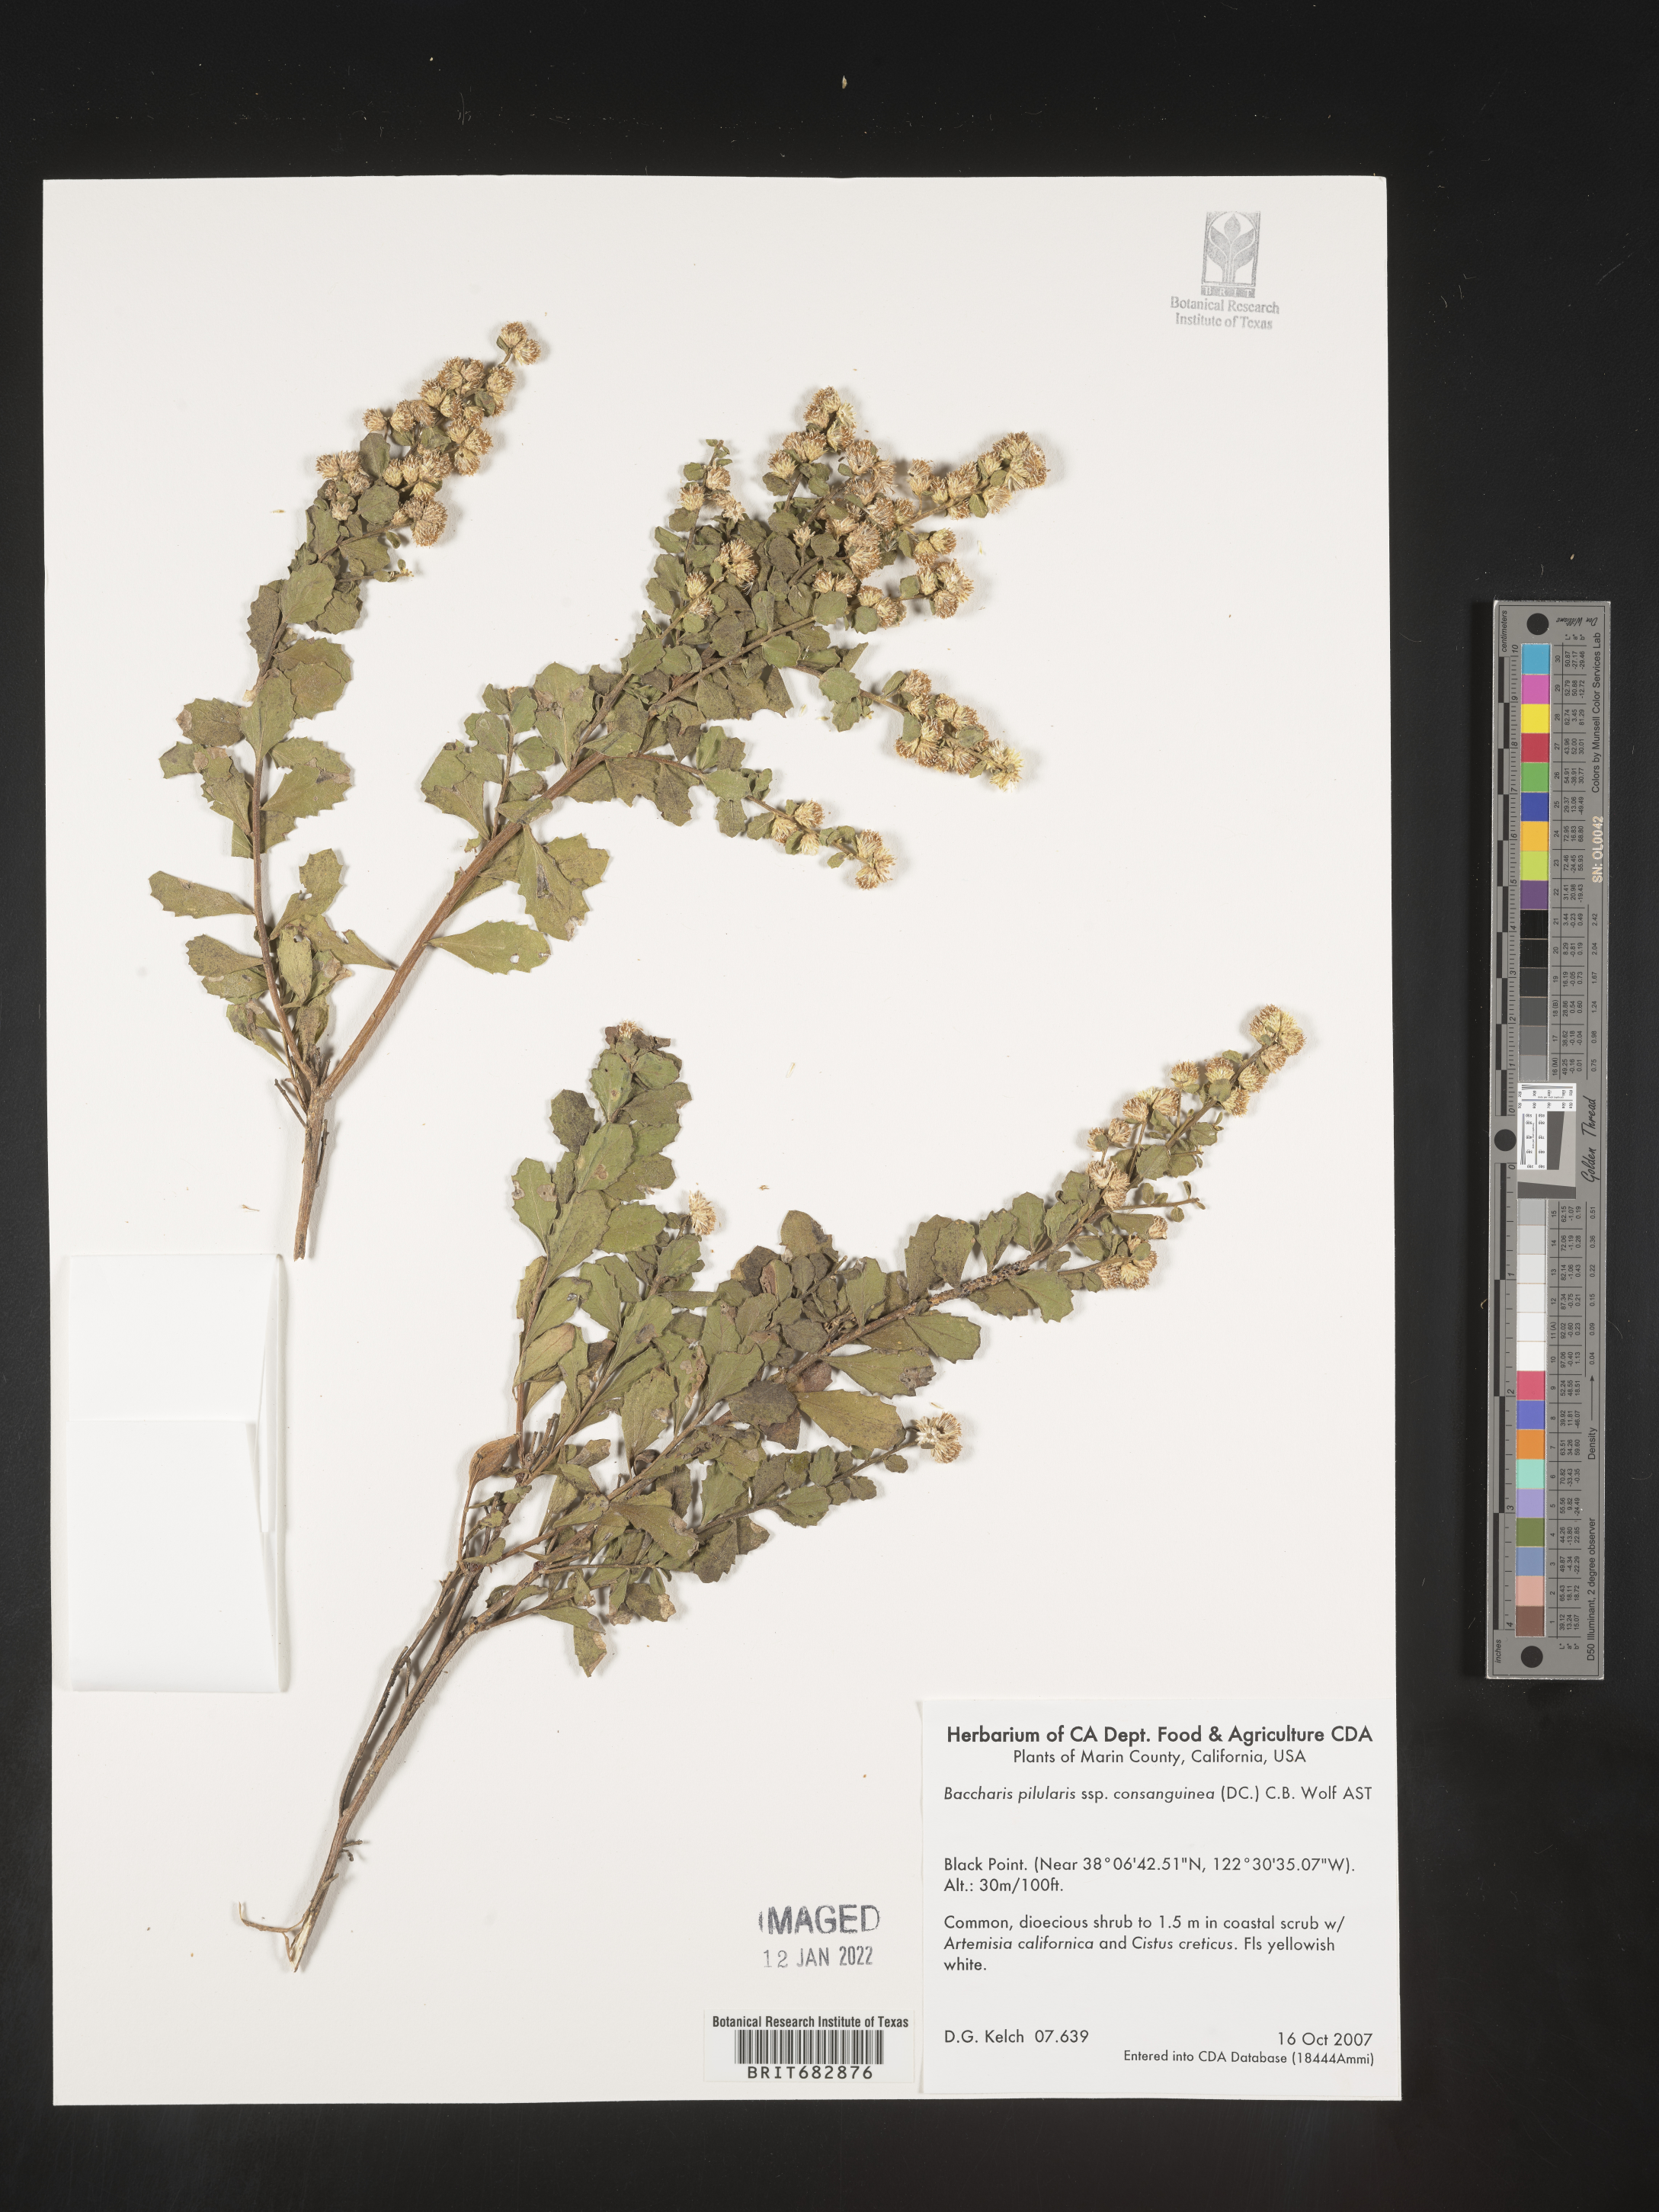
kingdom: Plantae
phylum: Tracheophyta
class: Magnoliopsida
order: Asterales
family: Asteraceae
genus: Baccharis
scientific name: Baccharis pilularis
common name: Coyotebrush
